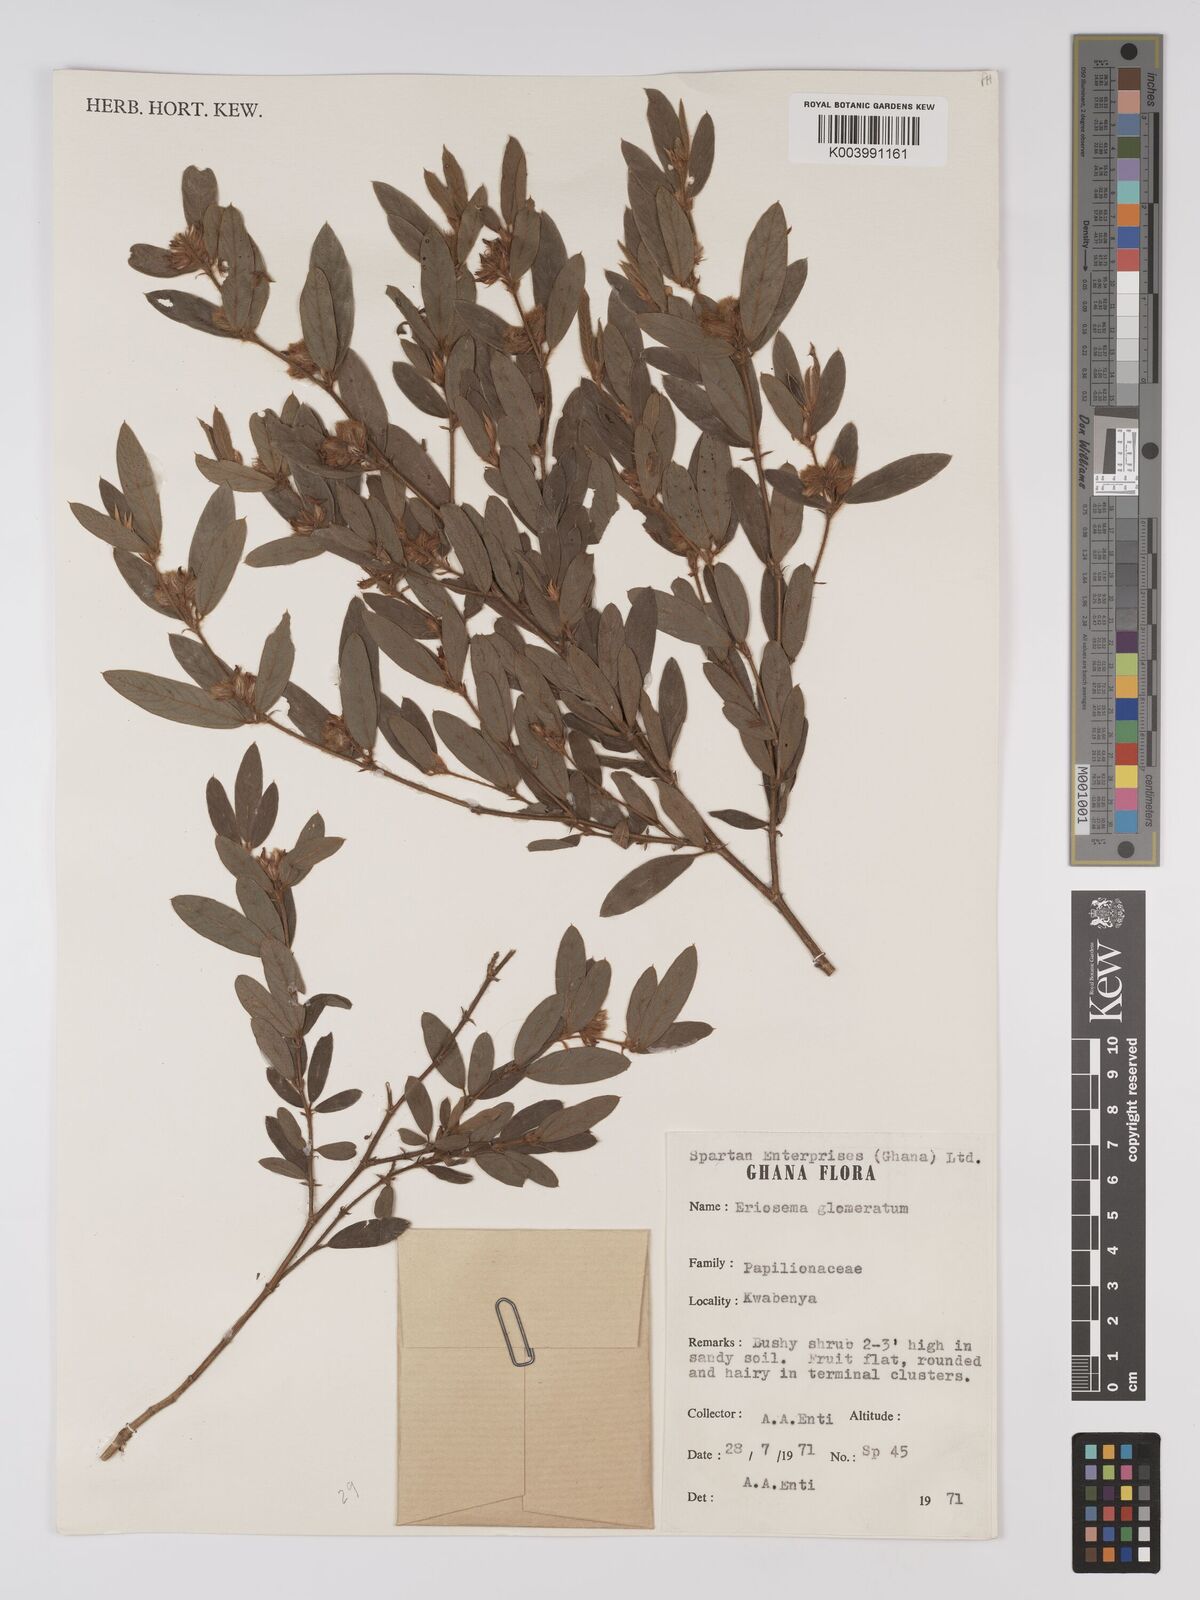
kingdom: Plantae
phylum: Tracheophyta
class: Magnoliopsida
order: Fabales
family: Fabaceae
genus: Eriosema
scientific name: Eriosema glomeratum
